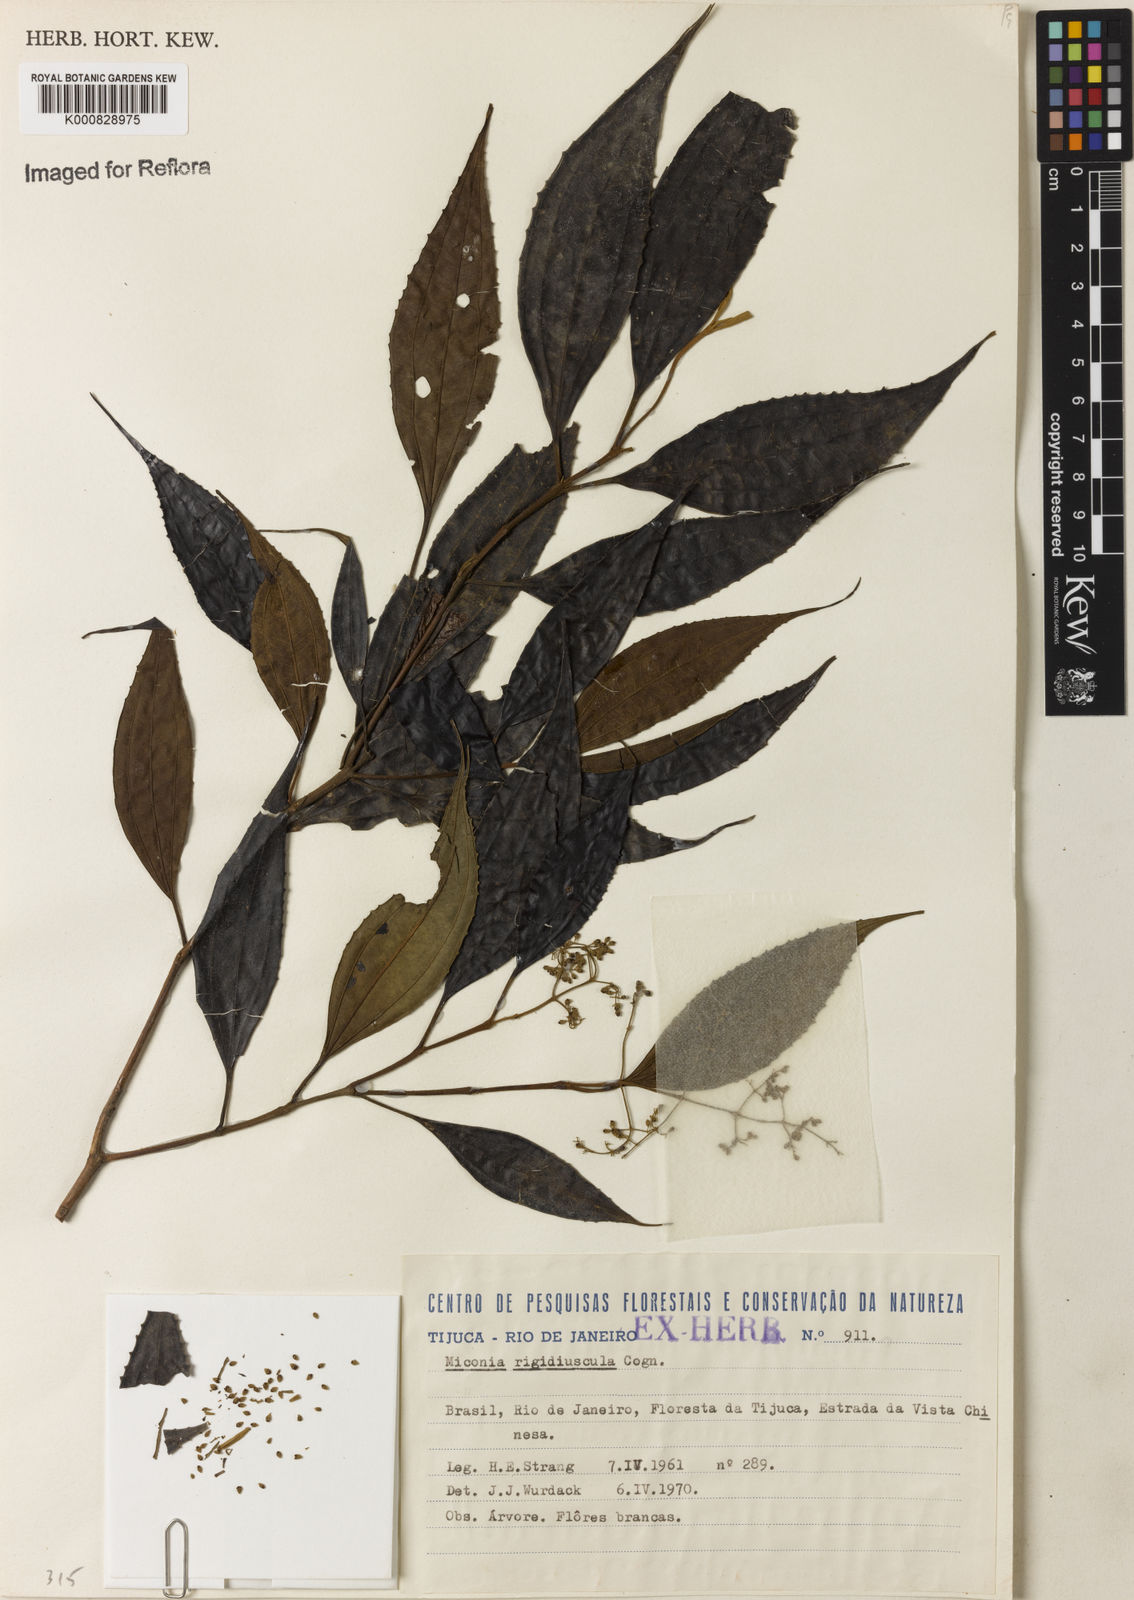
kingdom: Plantae
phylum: Tracheophyta
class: Magnoliopsida
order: Myrtales
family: Melastomataceae
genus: Miconia
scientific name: Miconia pusilliflora
